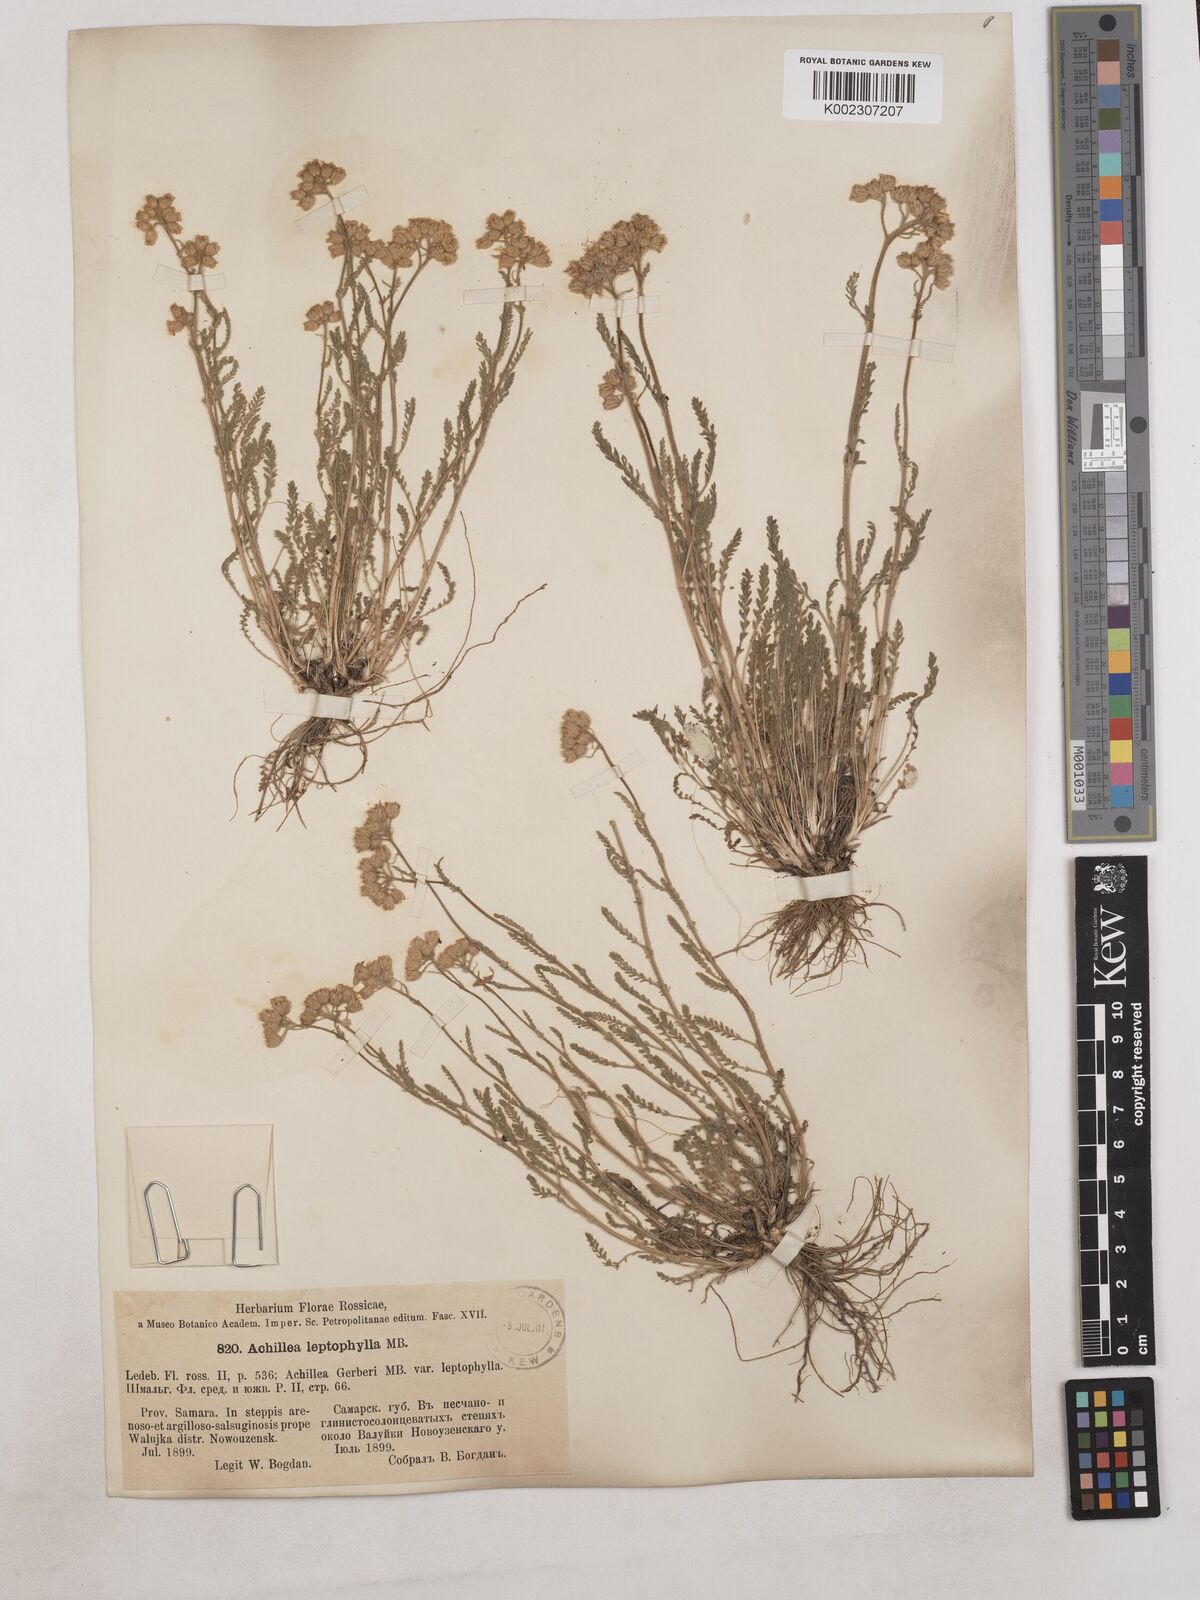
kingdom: Plantae
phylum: Tracheophyta
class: Magnoliopsida
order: Asterales
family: Asteraceae
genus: Achillea
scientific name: Achillea leptophylla
